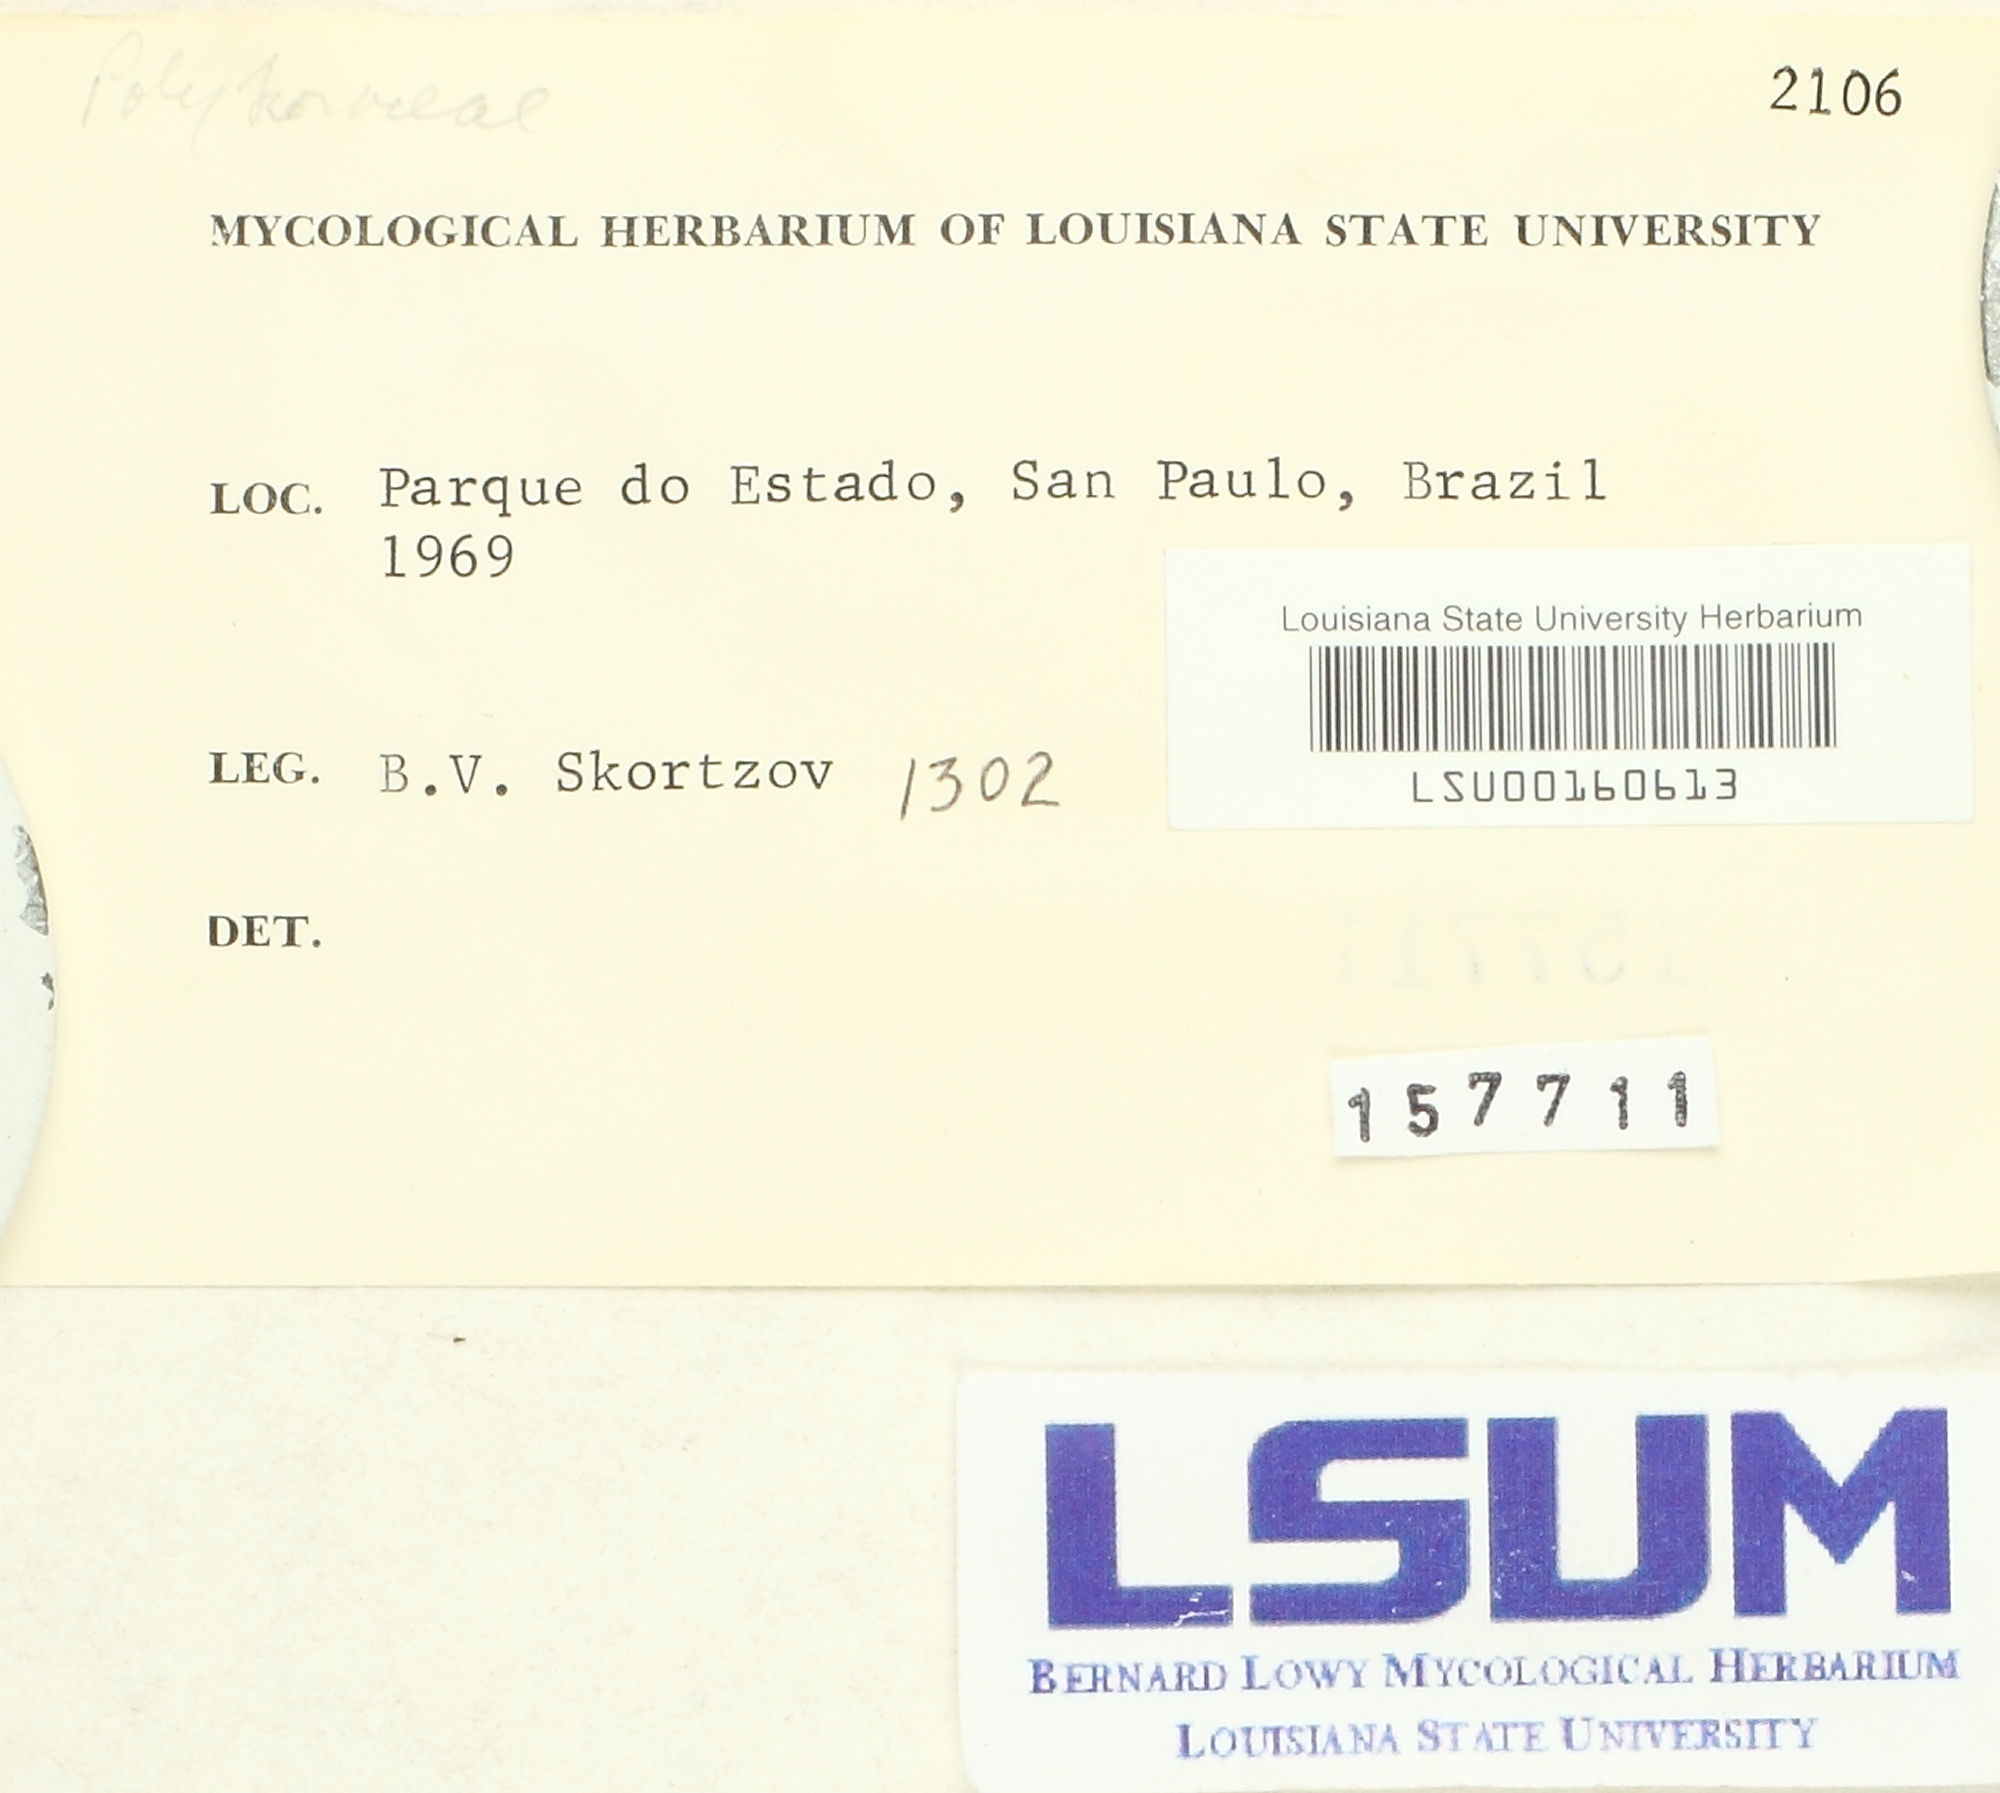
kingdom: Fungi
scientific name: Fungi
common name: Fungi
